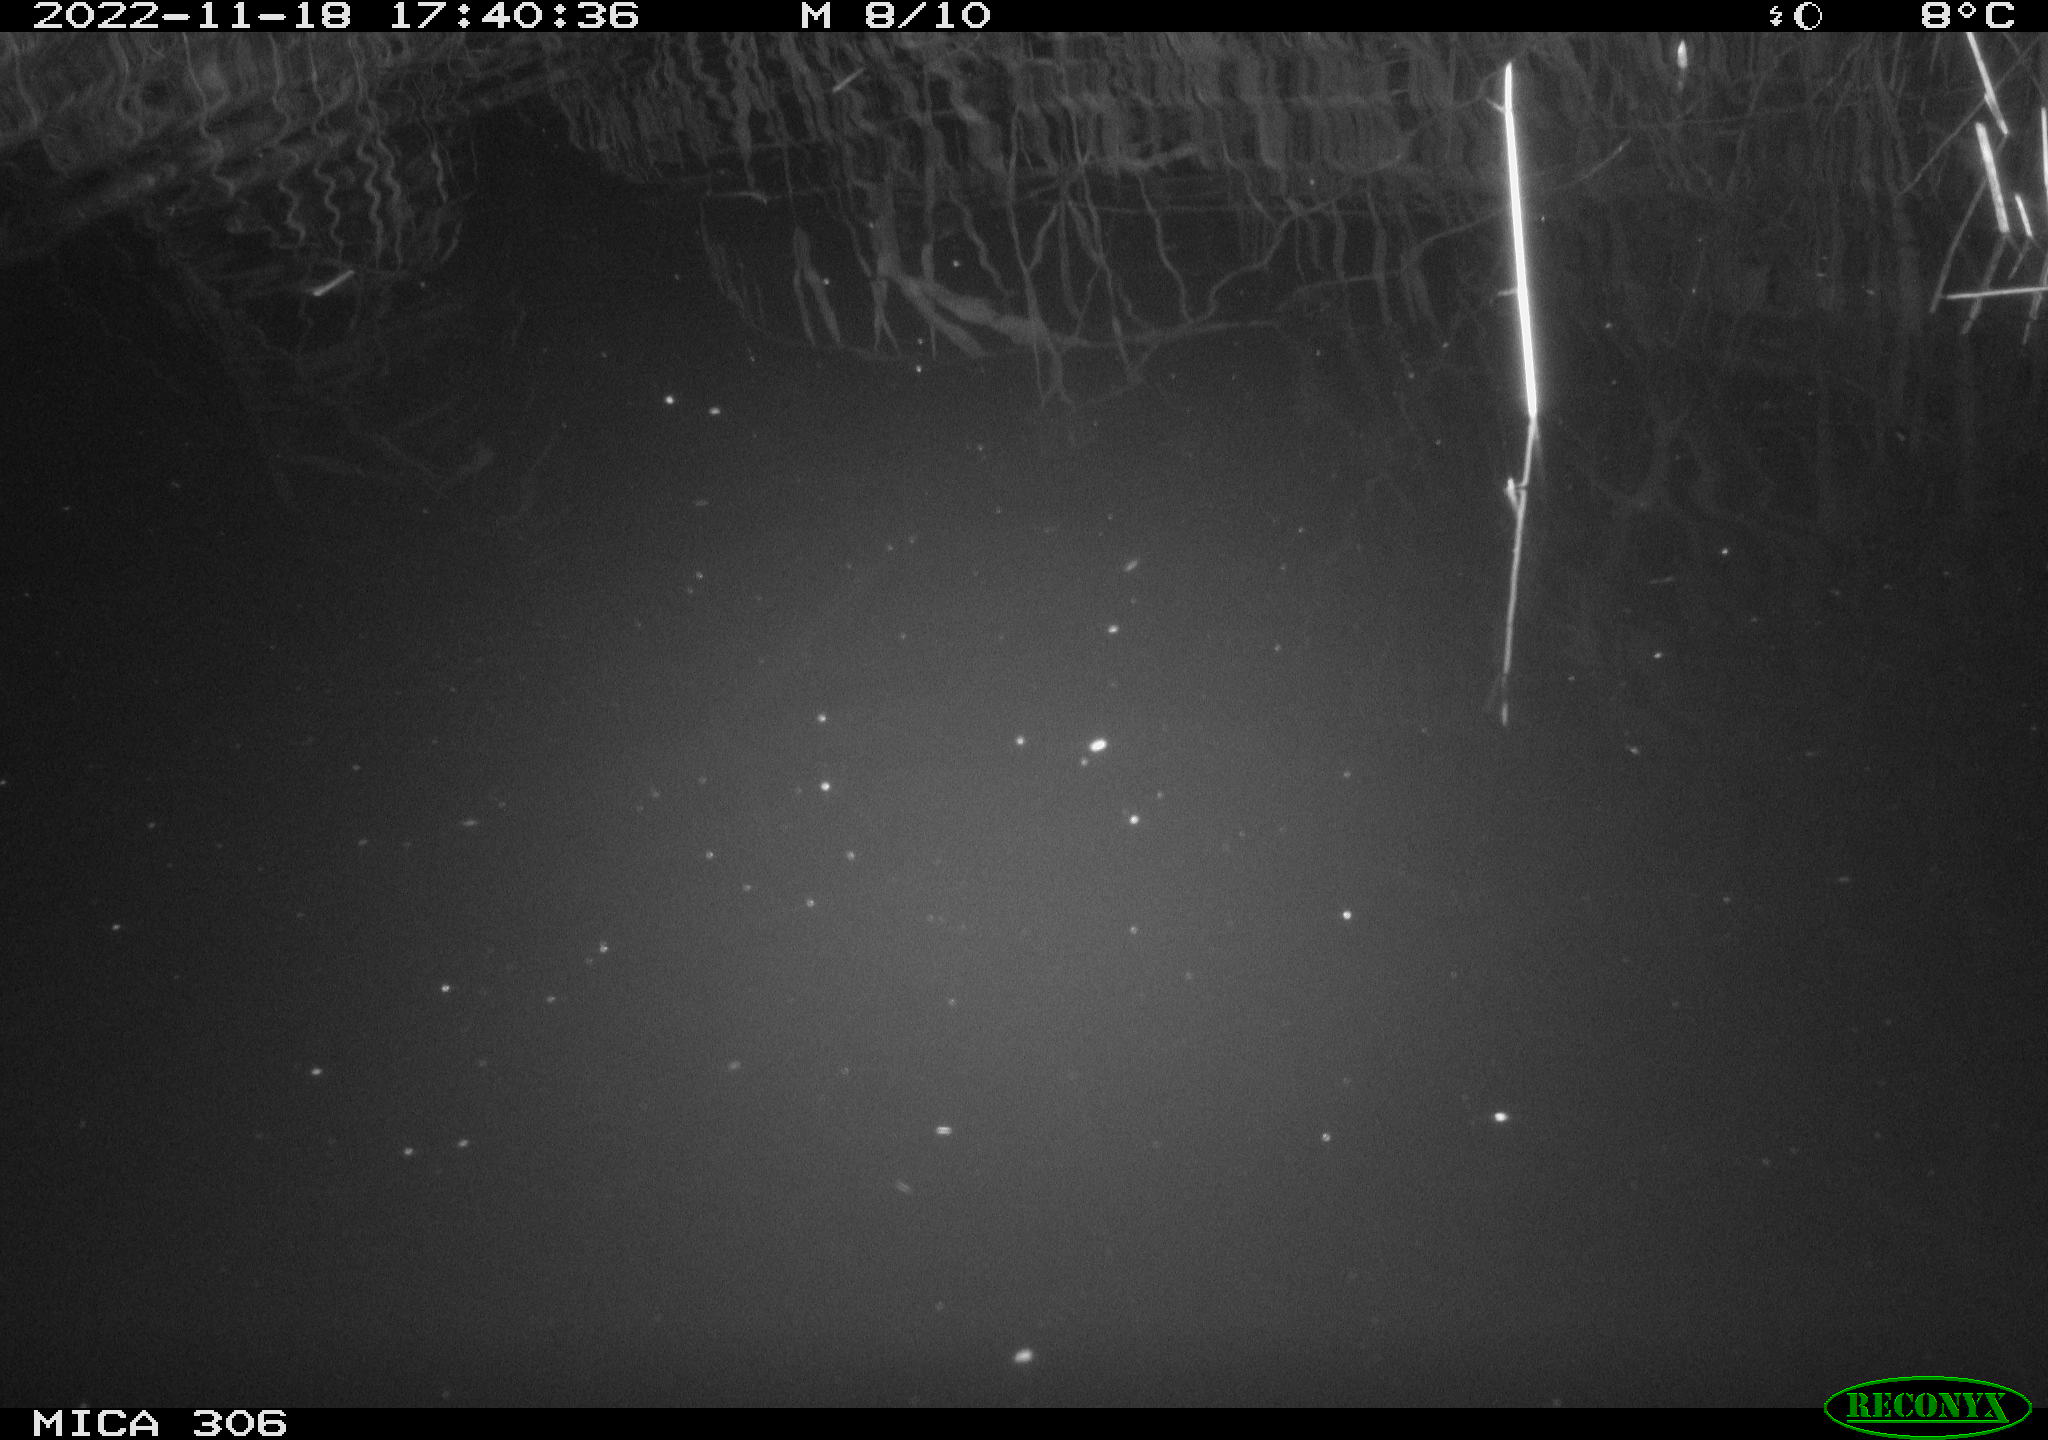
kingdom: Animalia
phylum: Chordata
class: Mammalia
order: Rodentia
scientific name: Rodentia
